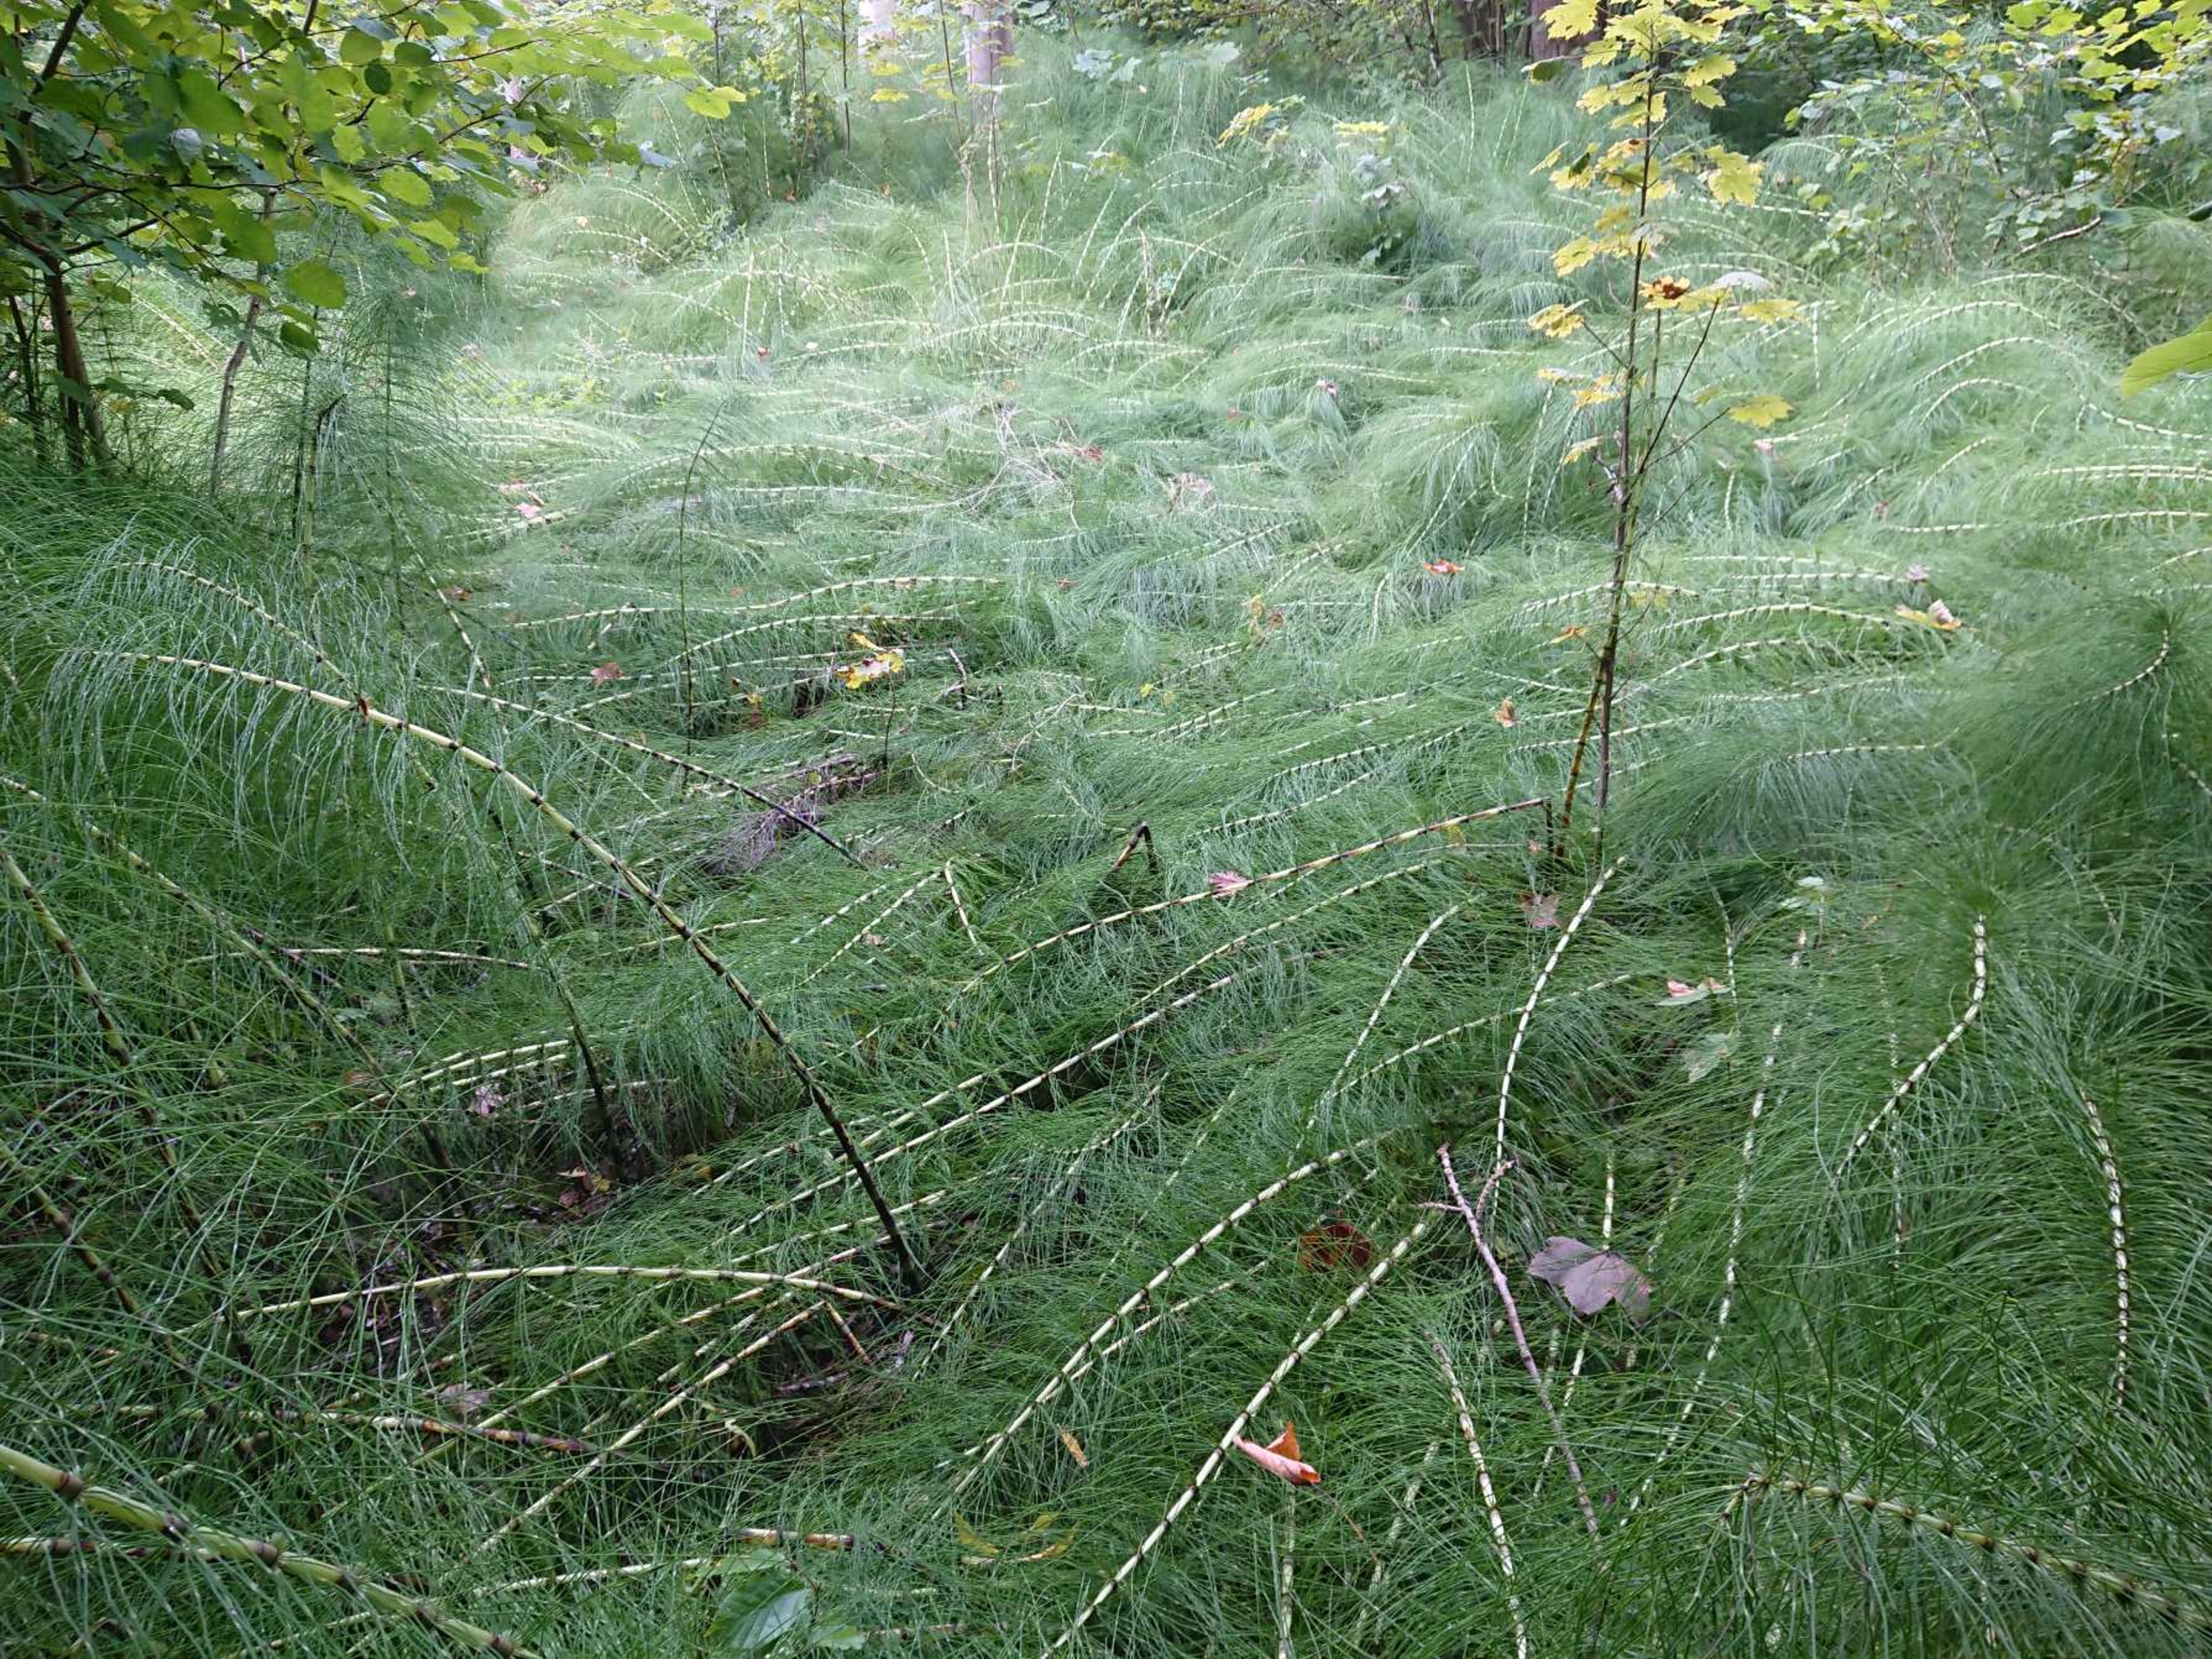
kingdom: Plantae
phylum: Tracheophyta
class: Polypodiopsida
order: Equisetales
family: Equisetaceae
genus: Equisetum
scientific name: Equisetum telmateia
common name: Elfenbens-padderok
